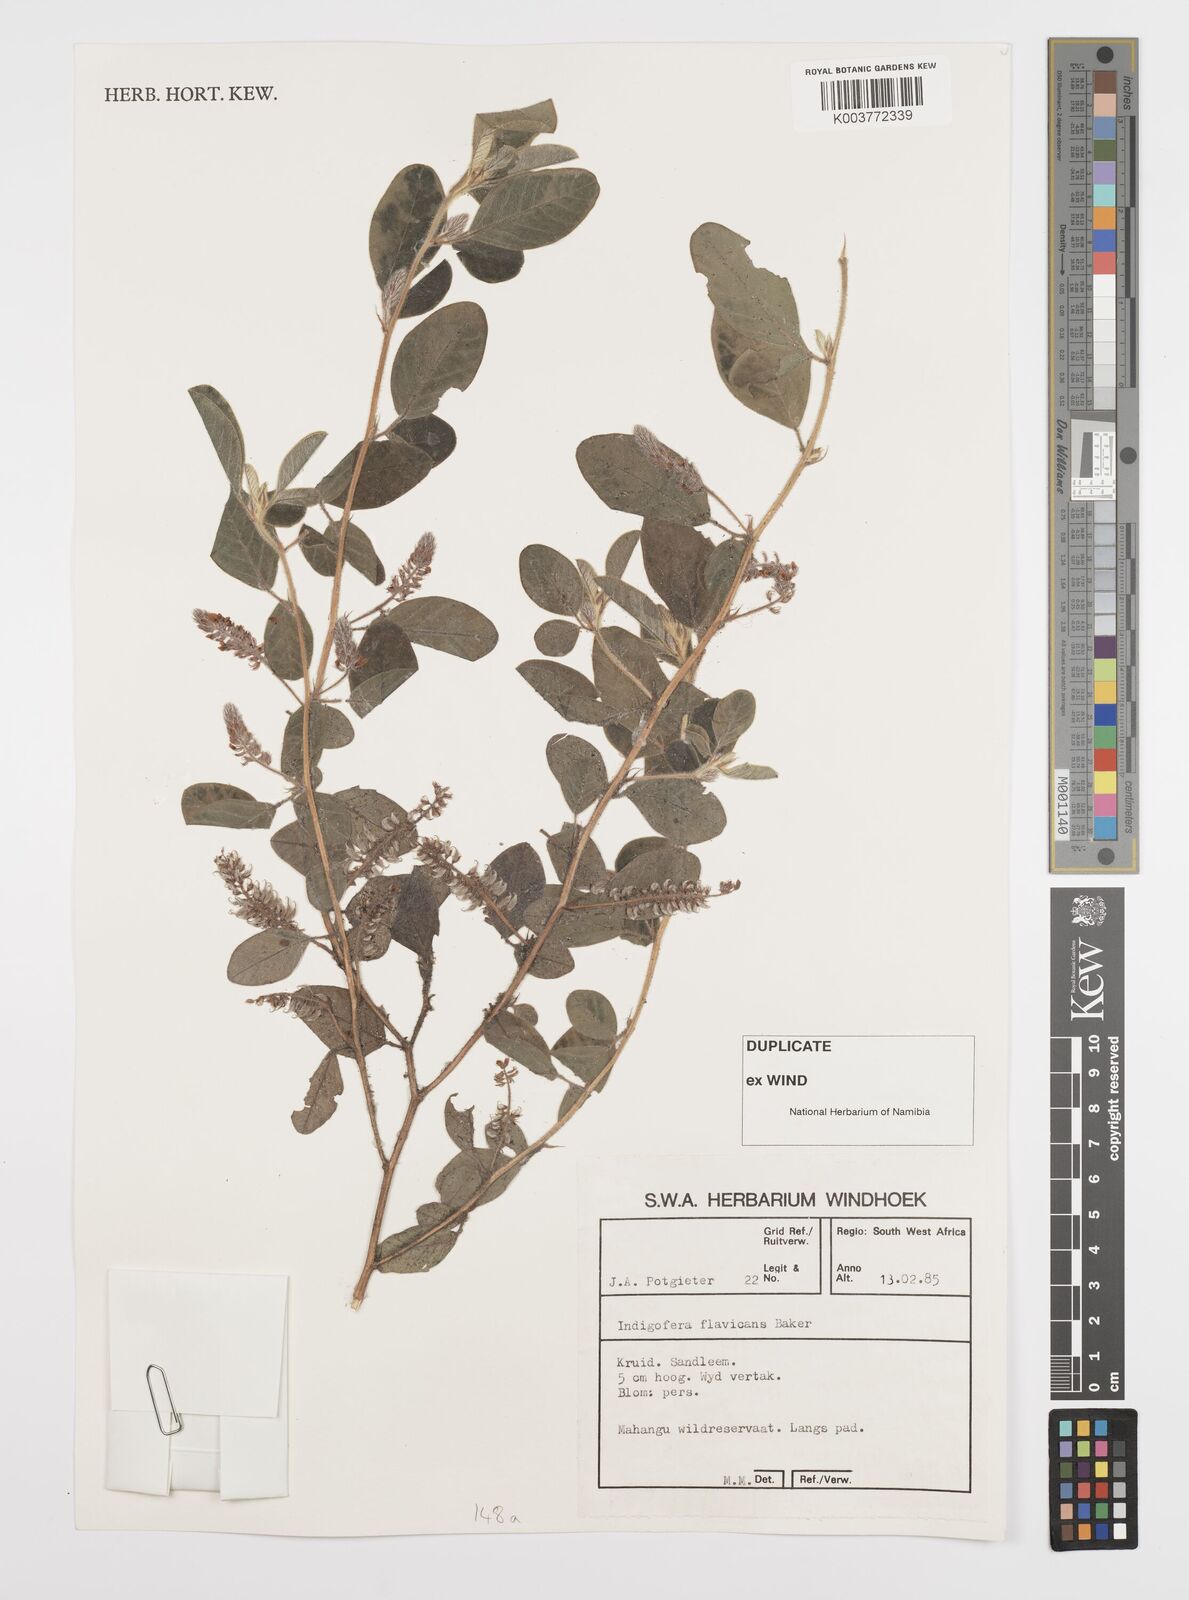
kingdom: Plantae
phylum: Tracheophyta
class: Magnoliopsida
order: Fabales
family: Fabaceae
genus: Indigofera
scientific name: Indigofera flavicans
